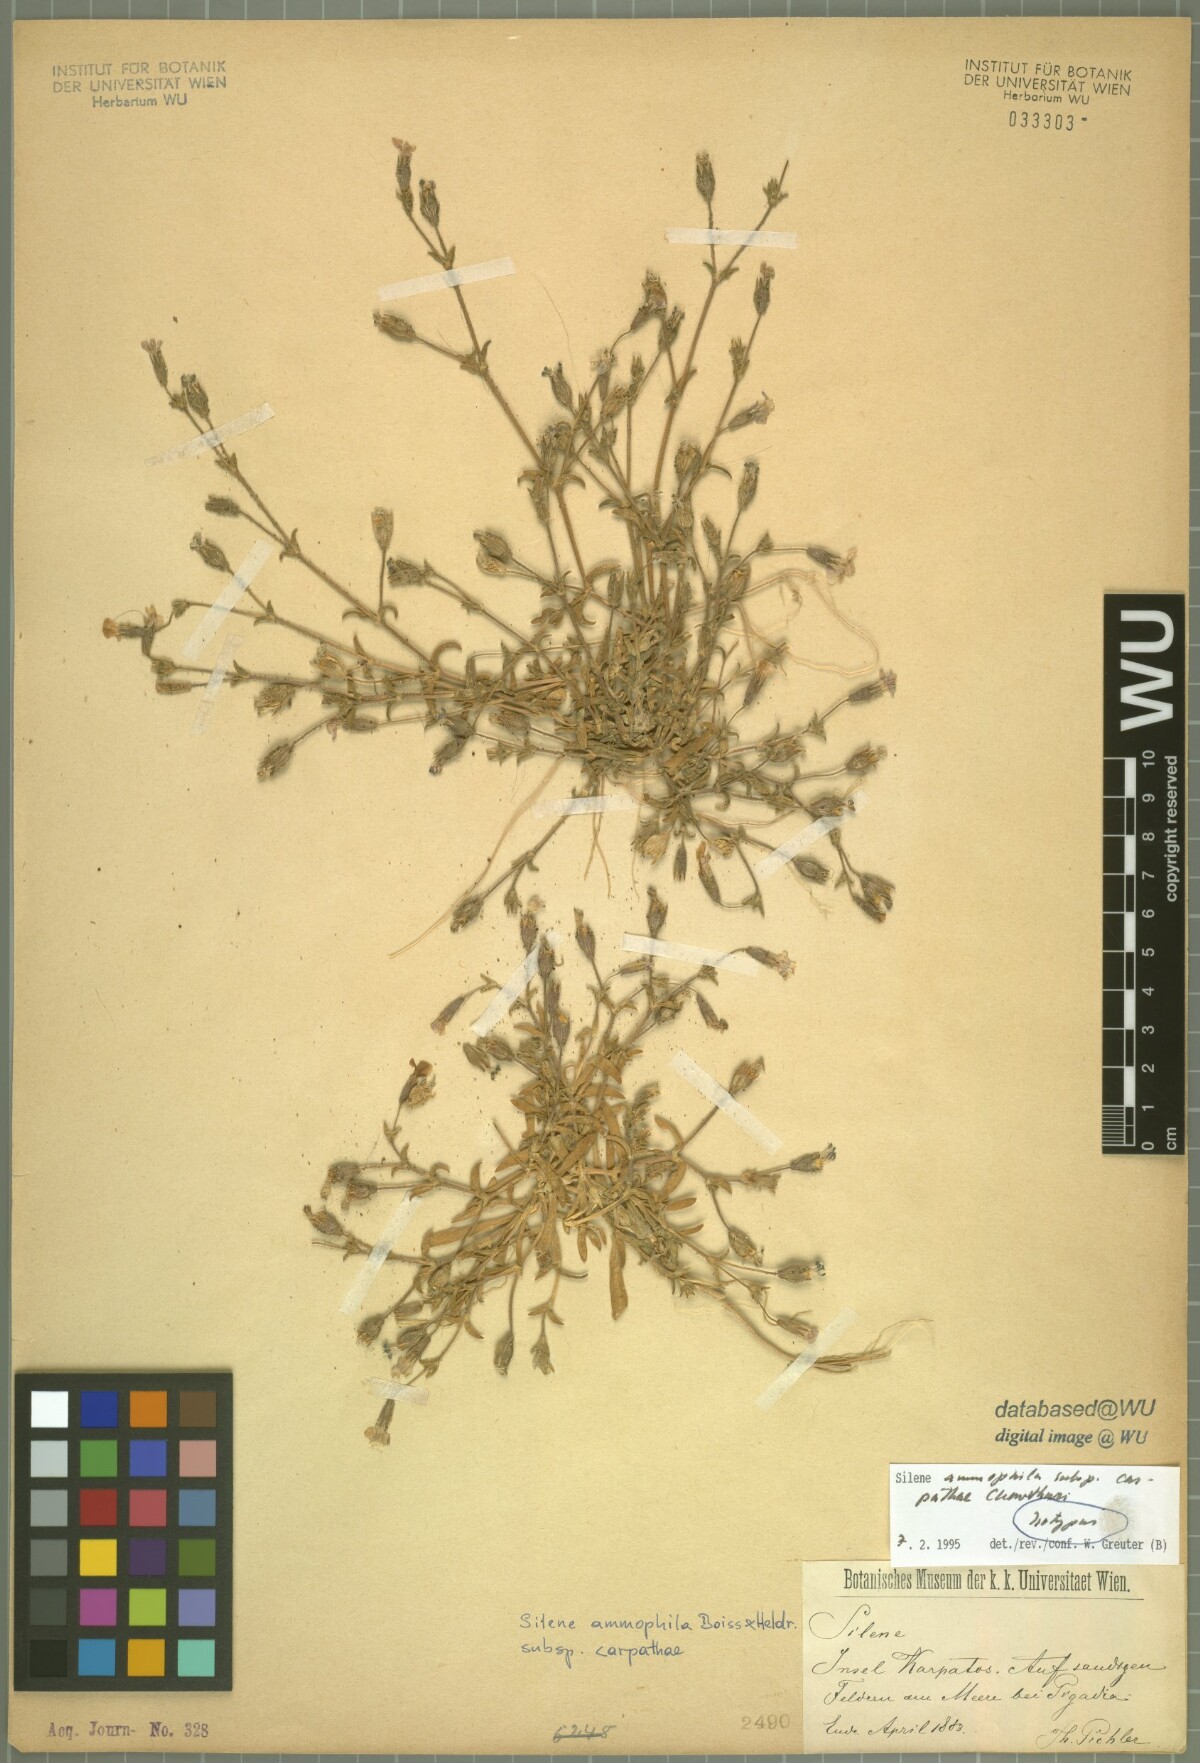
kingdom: Plantae
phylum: Tracheophyta
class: Magnoliopsida
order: Caryophyllales
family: Caryophyllaceae
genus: Silene
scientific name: Silene ammophila
